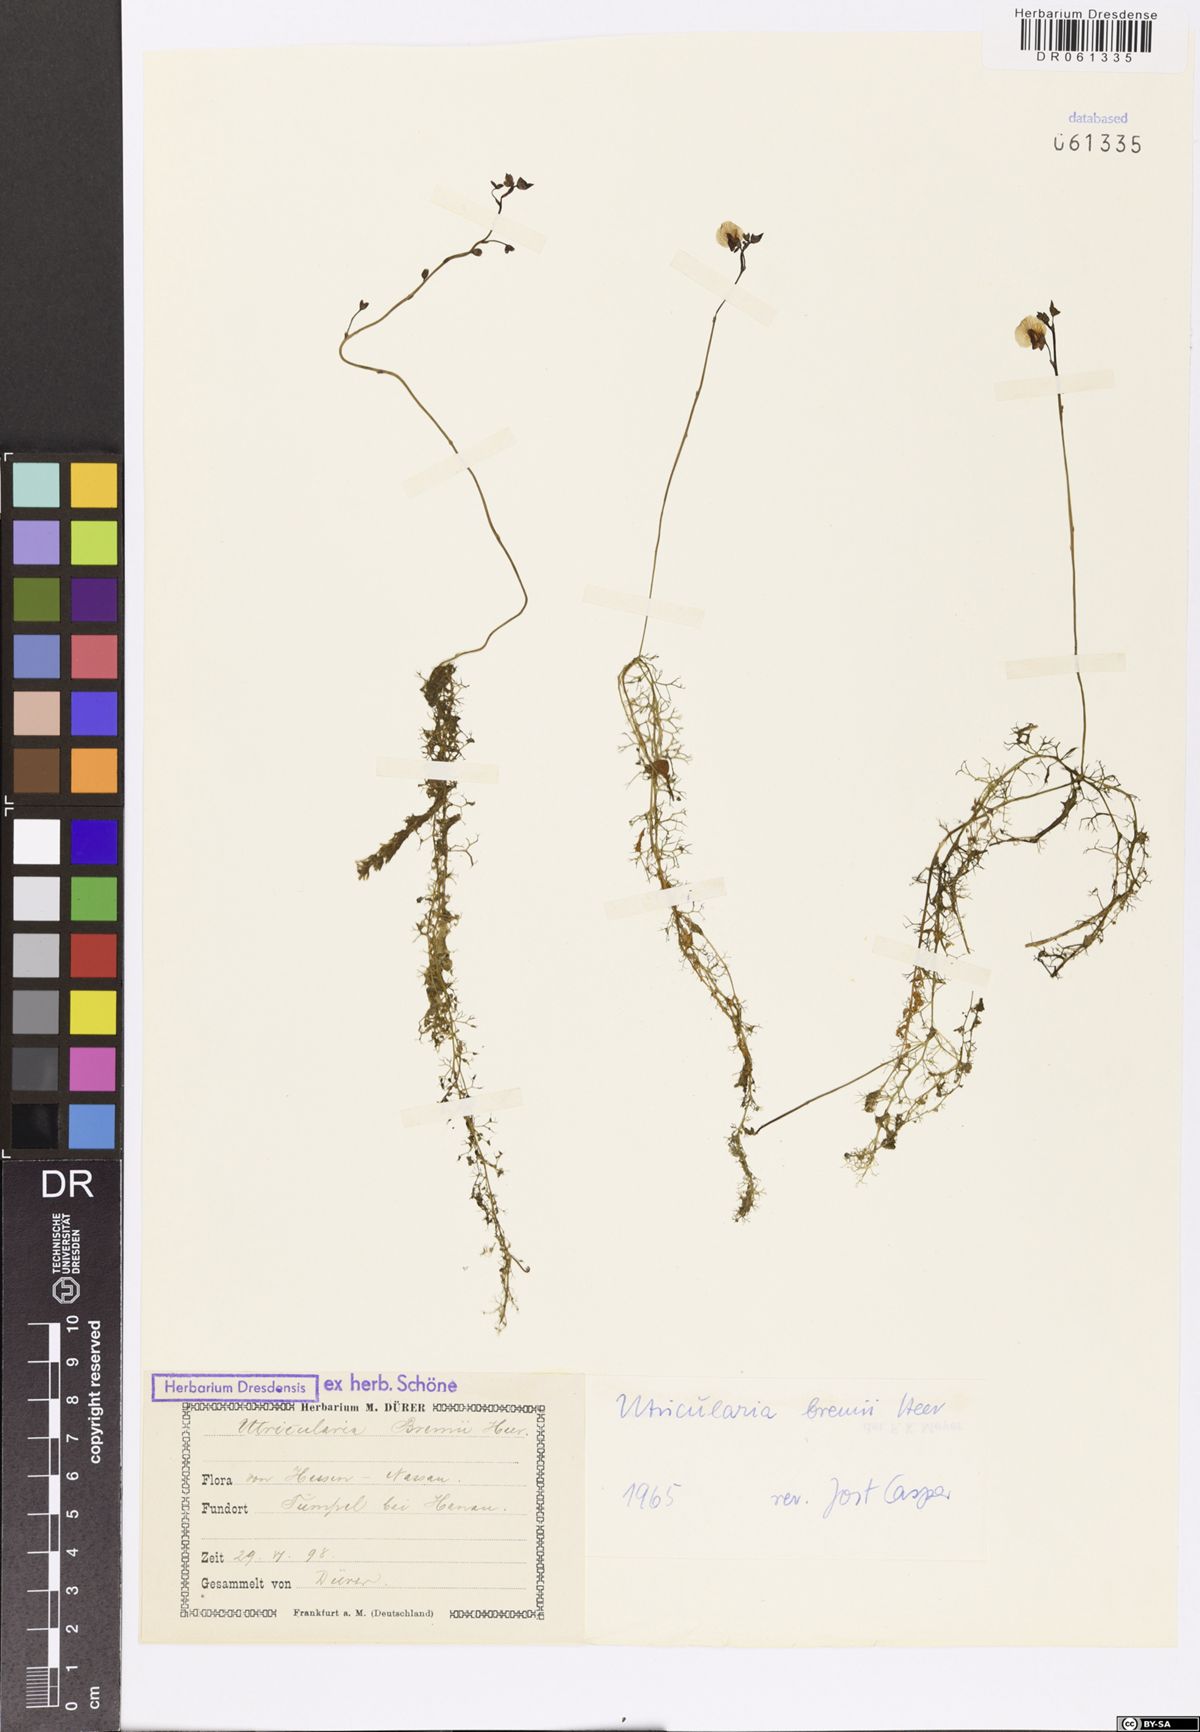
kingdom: Plantae
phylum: Tracheophyta
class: Magnoliopsida
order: Lamiales
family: Lentibulariaceae
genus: Utricularia
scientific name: Utricularia bremii
